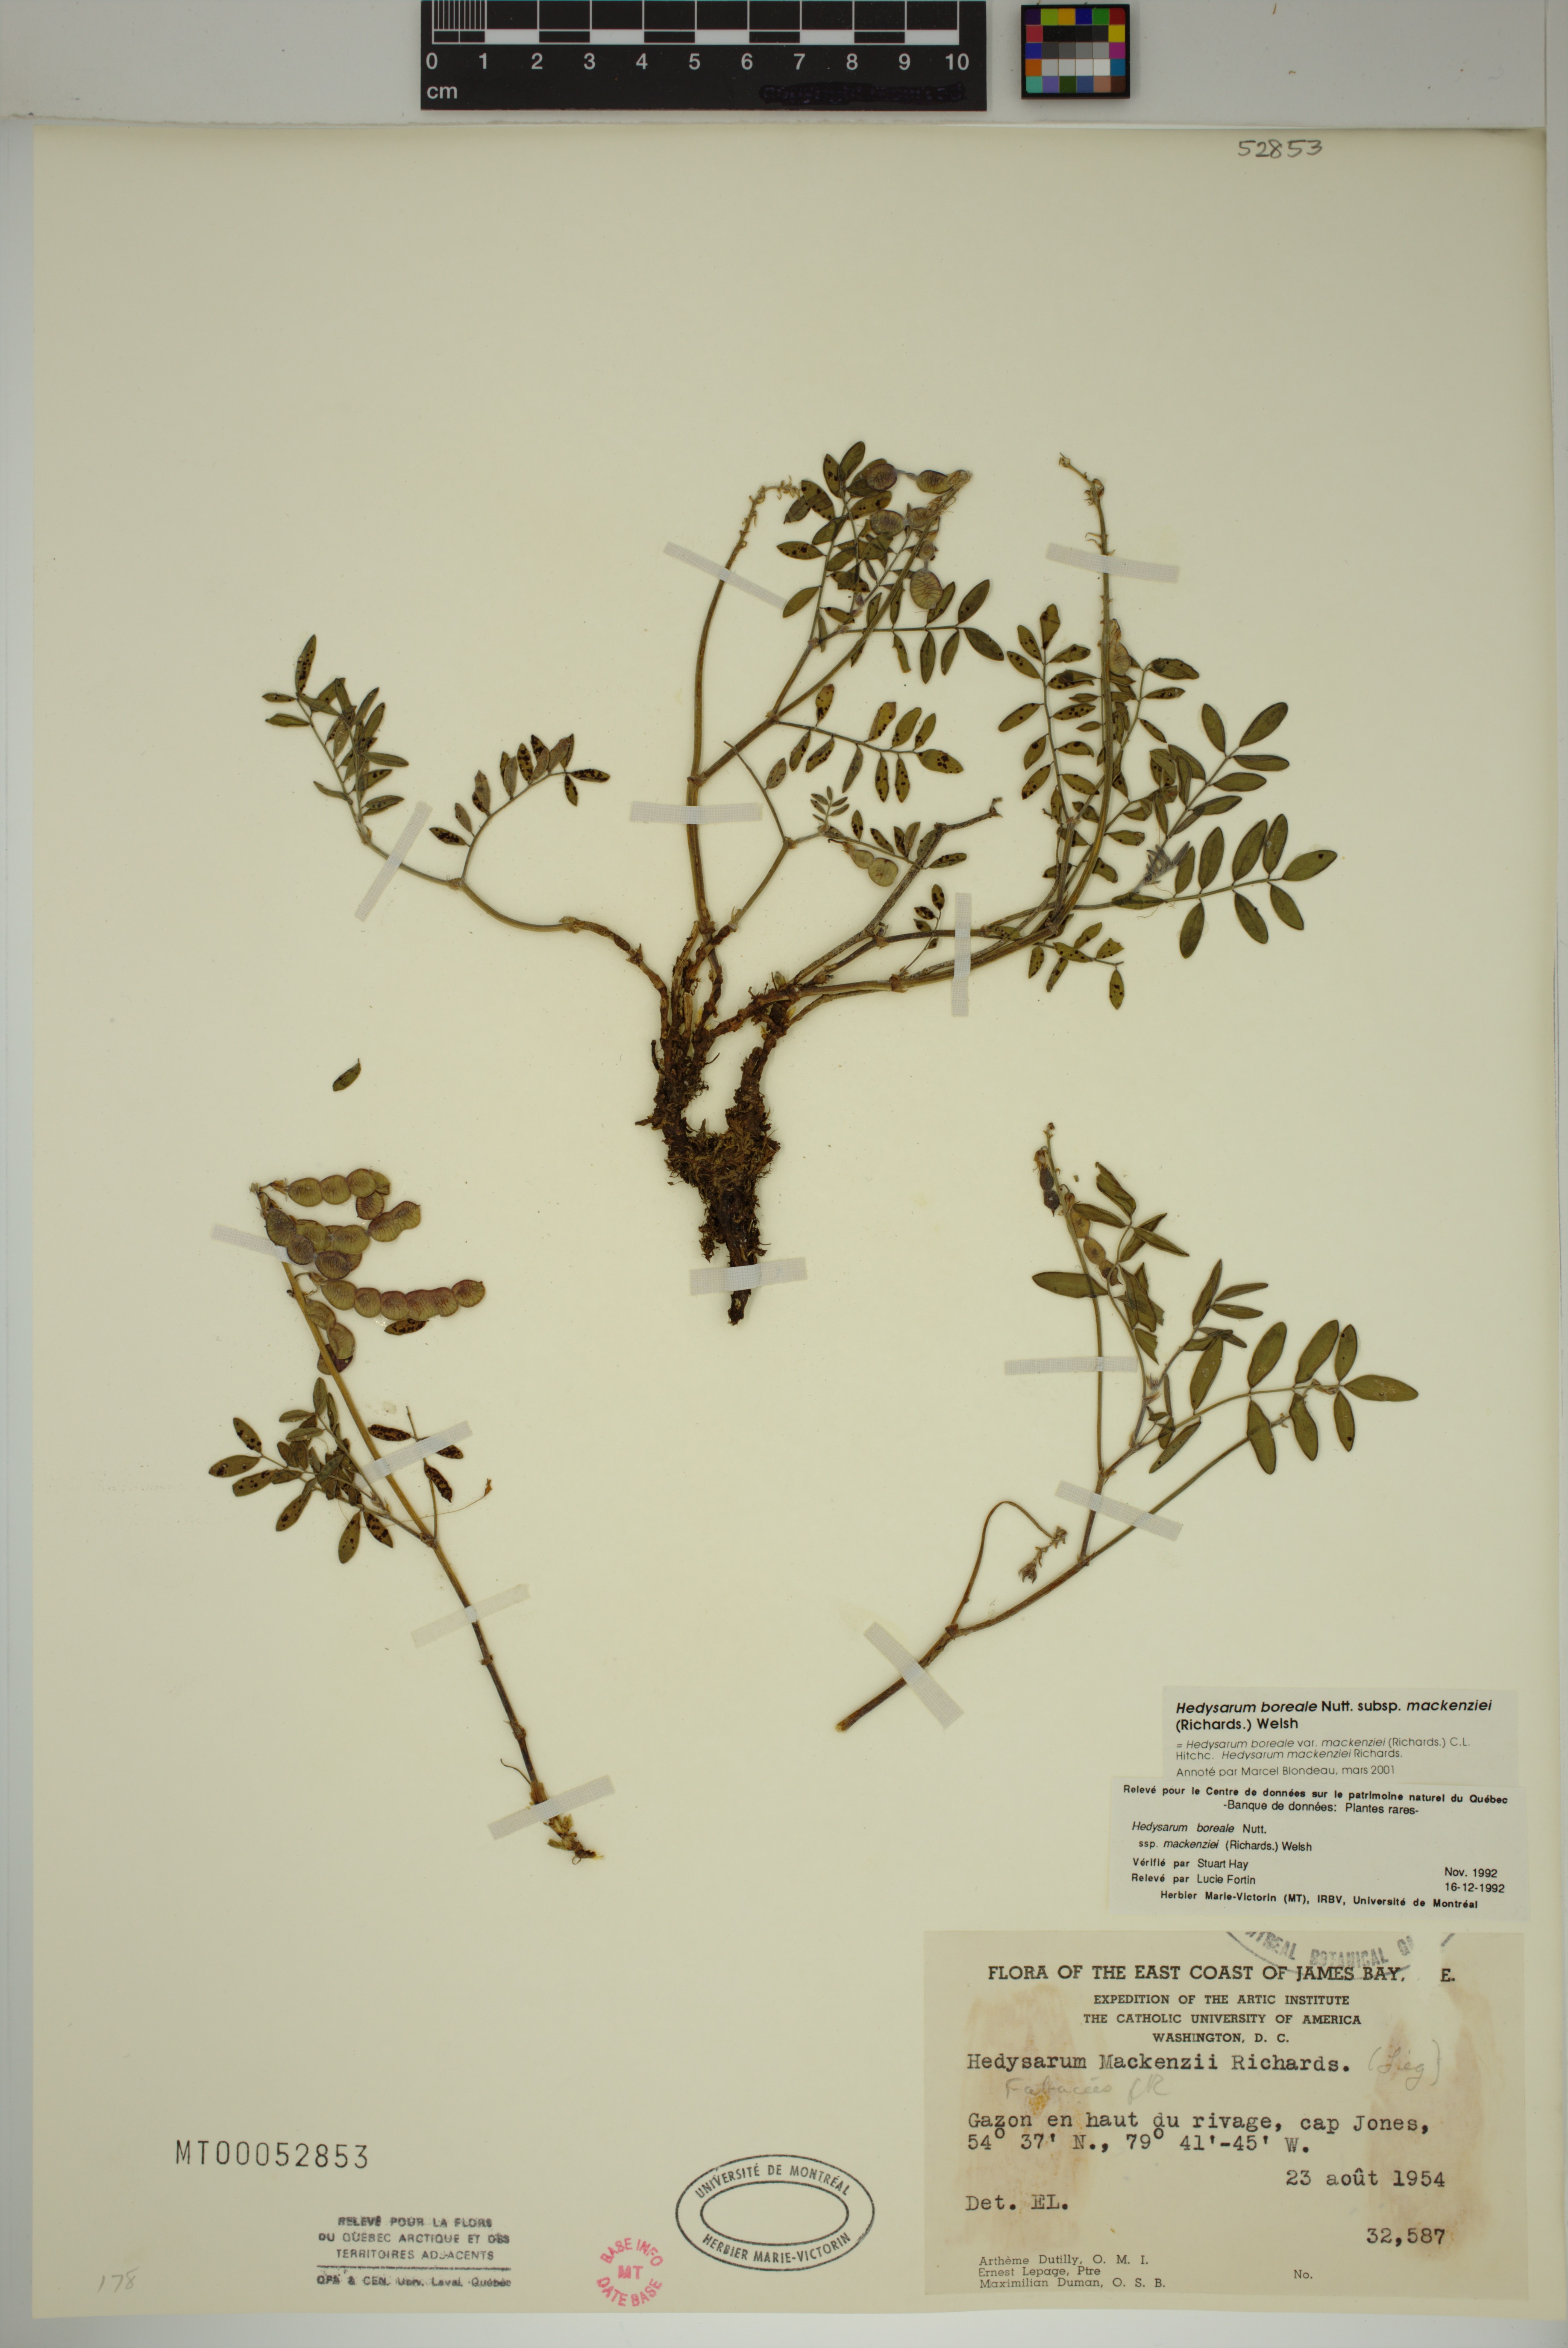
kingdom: Plantae
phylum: Tracheophyta
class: Magnoliopsida
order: Fabales
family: Fabaceae
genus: Hedysarum
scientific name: Hedysarum boreale
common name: Northern sweet-vetch
